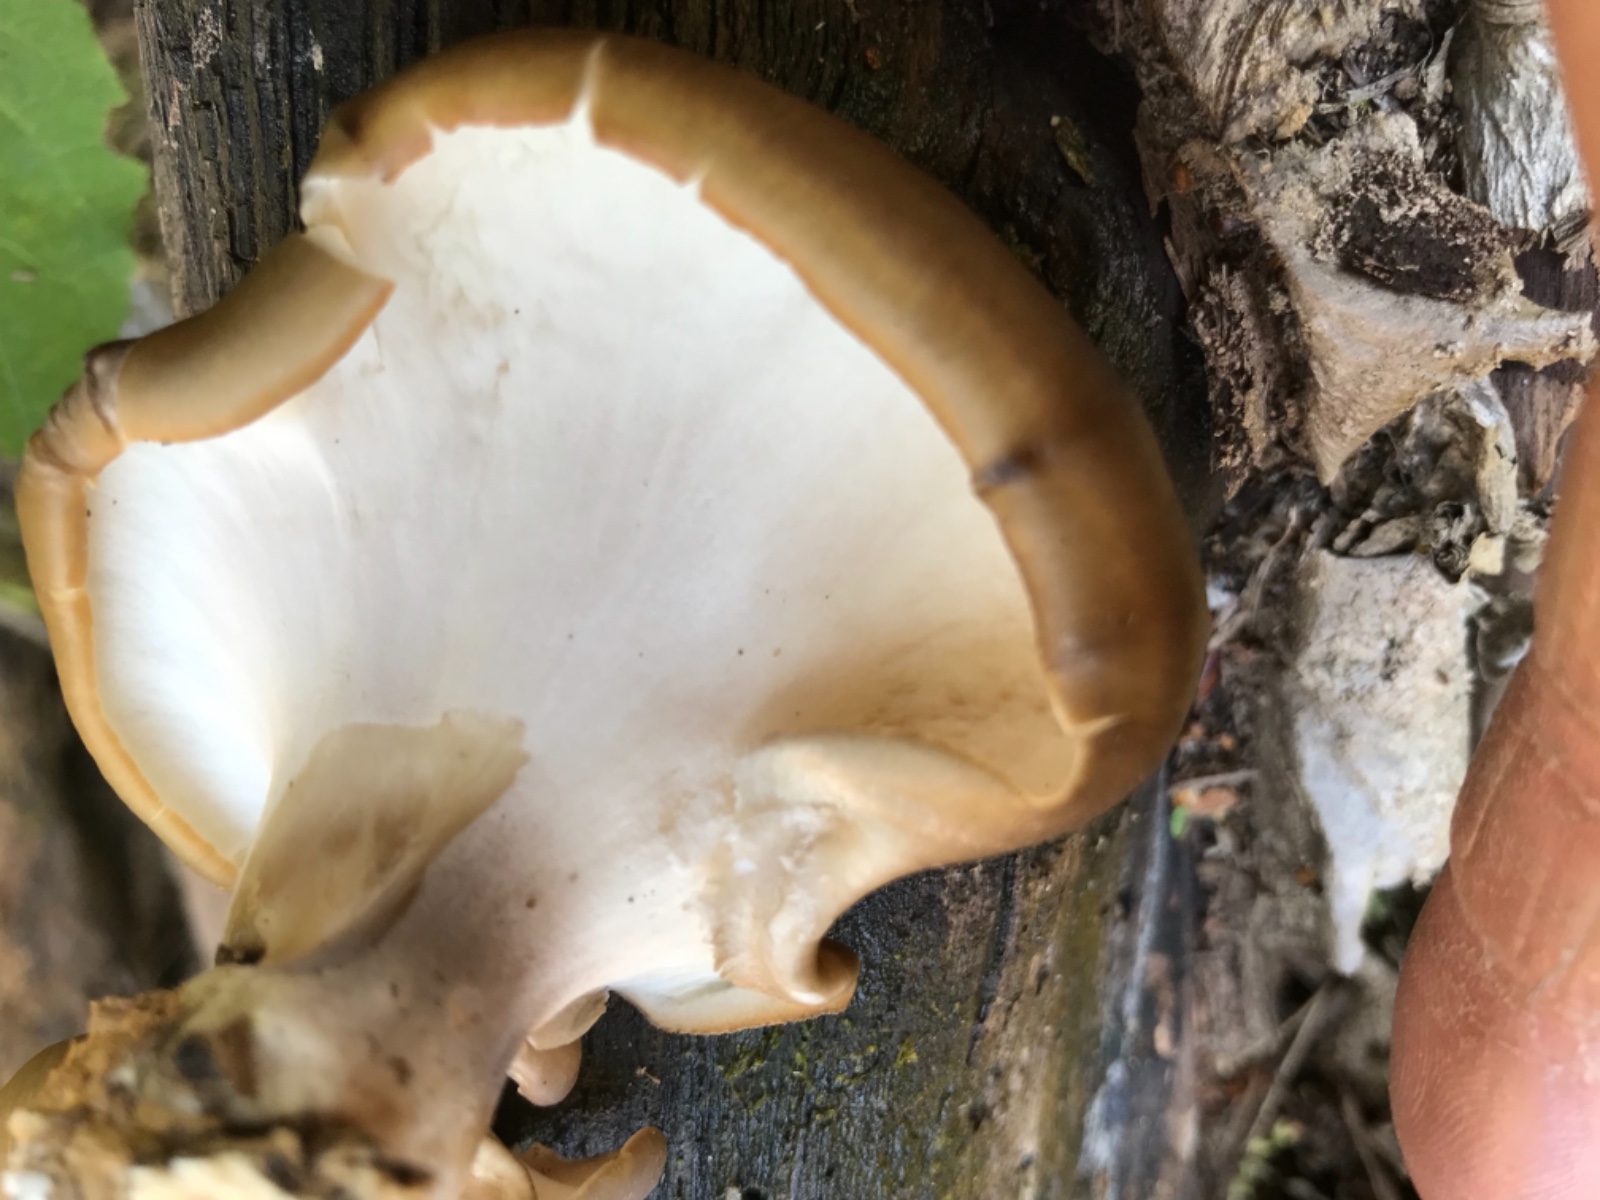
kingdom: Fungi
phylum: Basidiomycota
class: Agaricomycetes
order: Polyporales
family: Polyporaceae
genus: Picipes
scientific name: Picipes badius
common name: kastaniebrun stilkporesvamp
